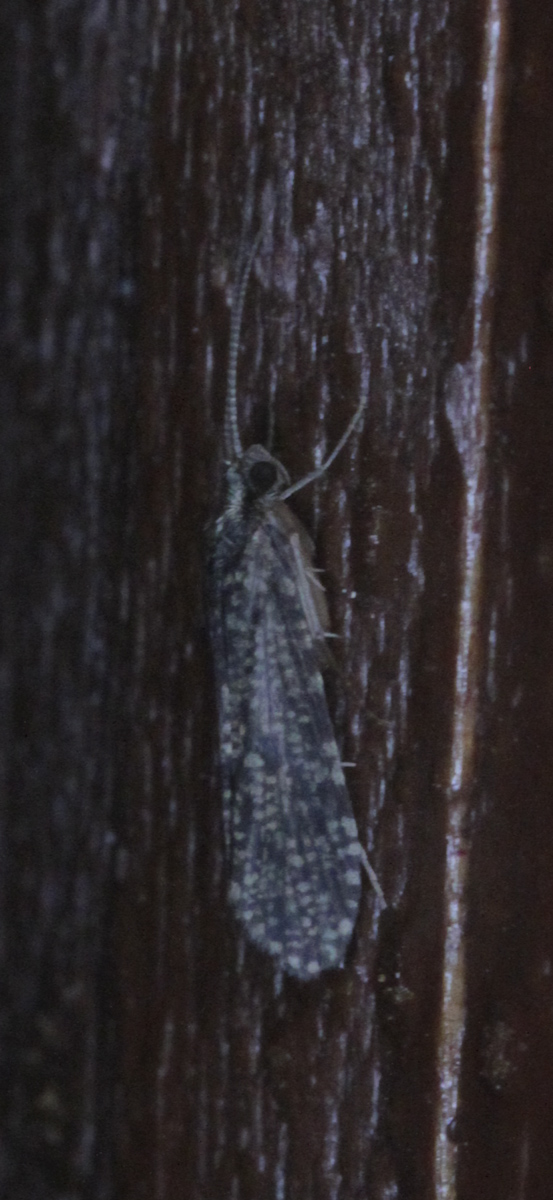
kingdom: Animalia
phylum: Arthropoda
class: Insecta
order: Trichoptera
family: Polycentropodidae
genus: Polycentropus
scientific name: Polycentropus flavomaculatus
